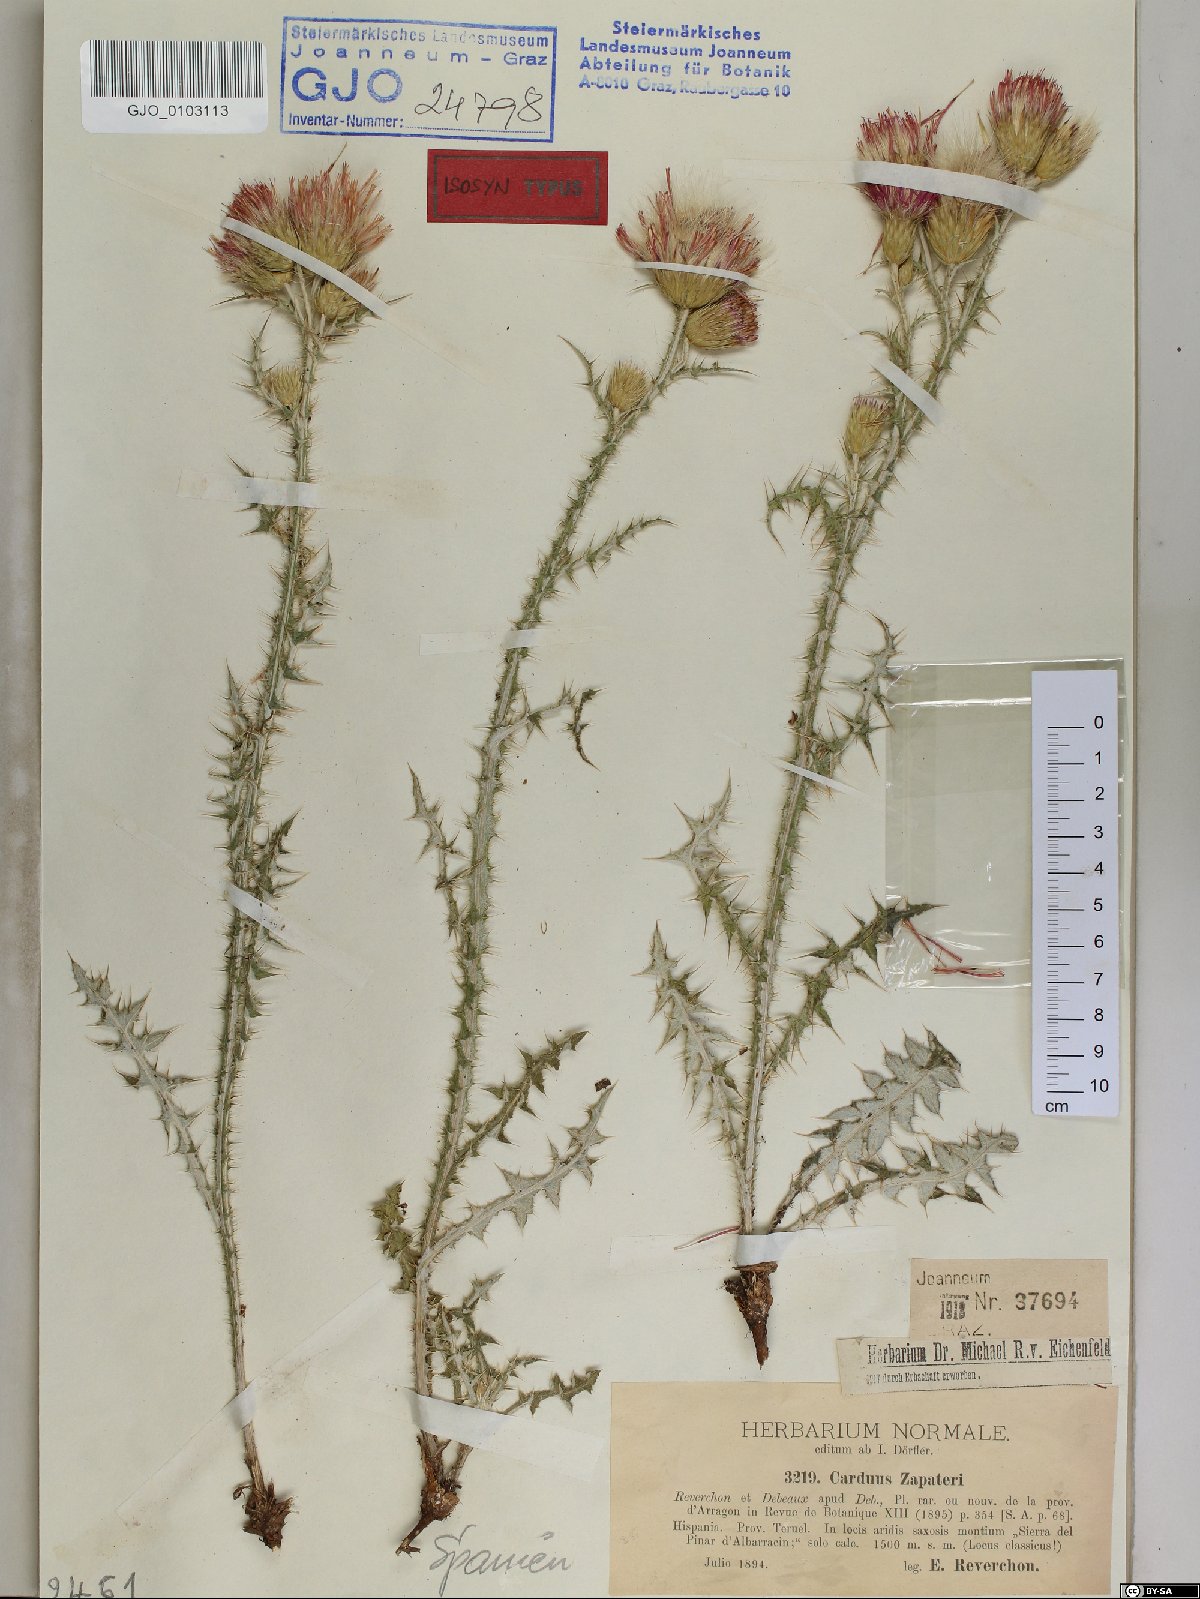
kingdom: Plantae
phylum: Tracheophyta
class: Magnoliopsida
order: Asterales
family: Asteraceae
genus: Carduus
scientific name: Carduus pycnocephalus
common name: Plymouth thistle
